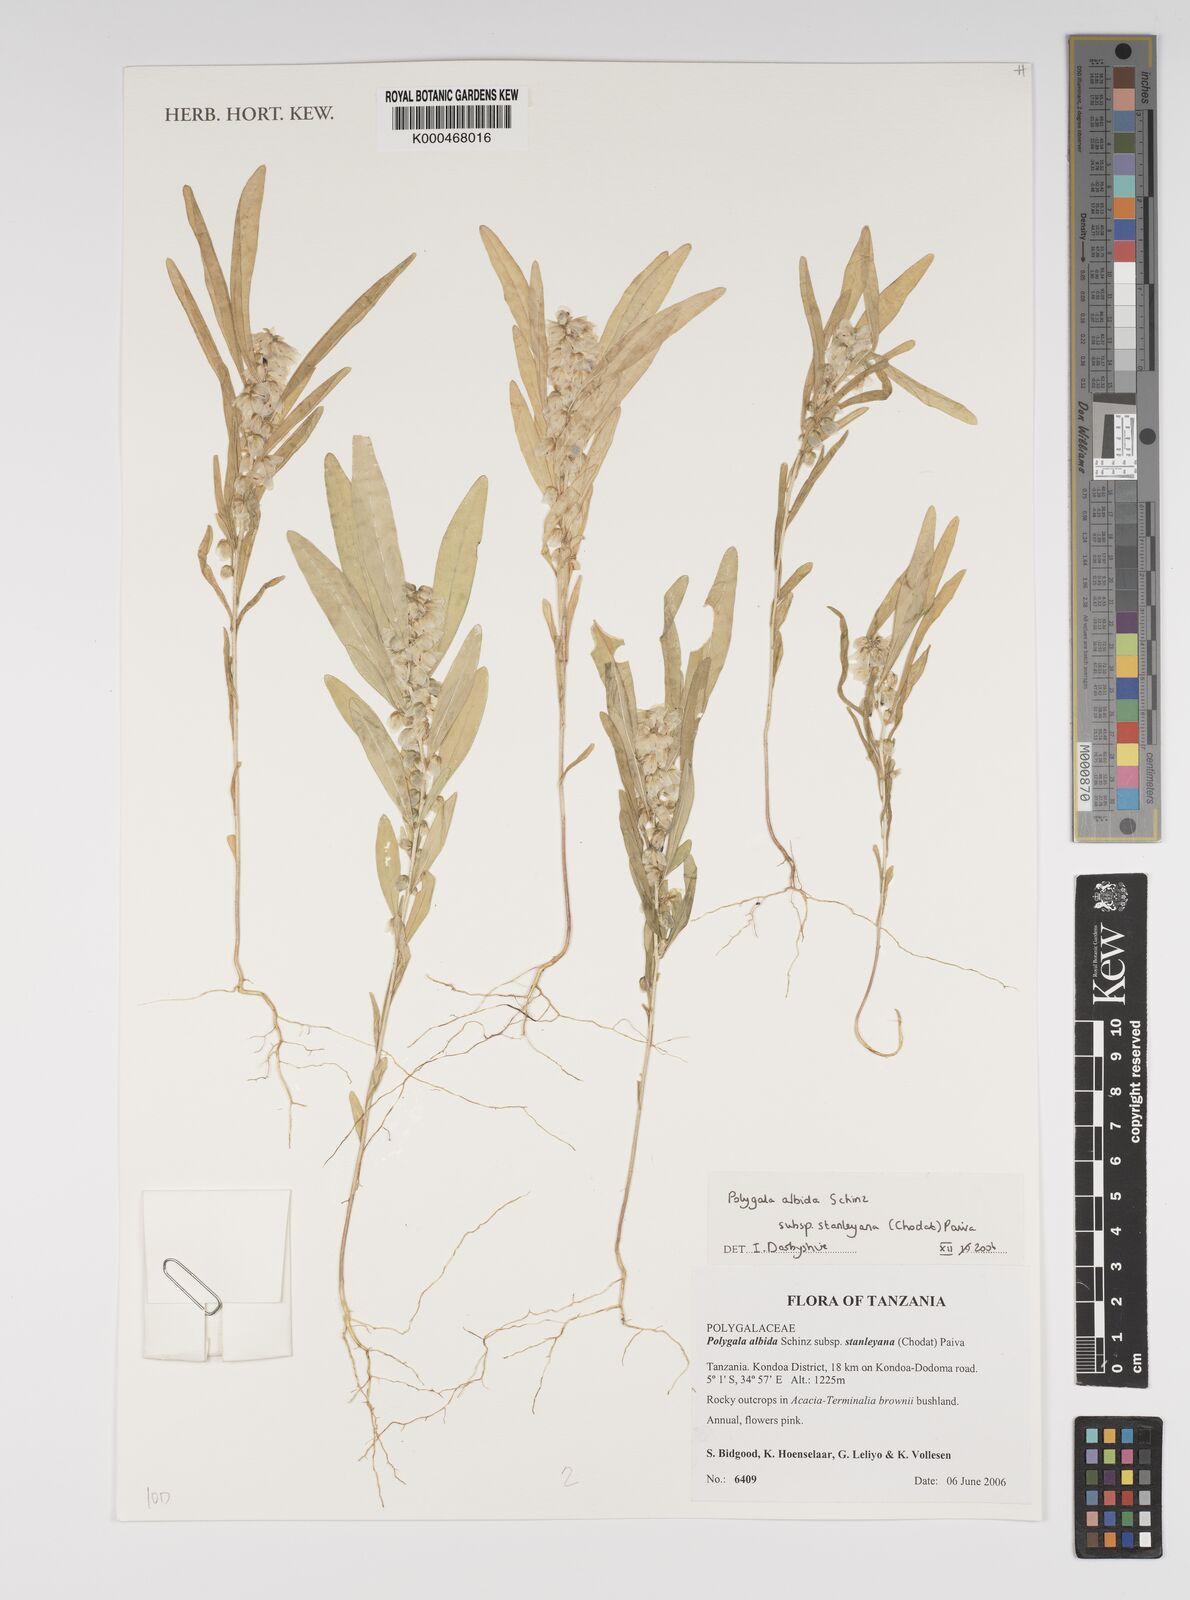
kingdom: Plantae
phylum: Tracheophyta
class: Magnoliopsida
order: Fabales
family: Polygalaceae
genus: Polygala
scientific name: Polygala albida
